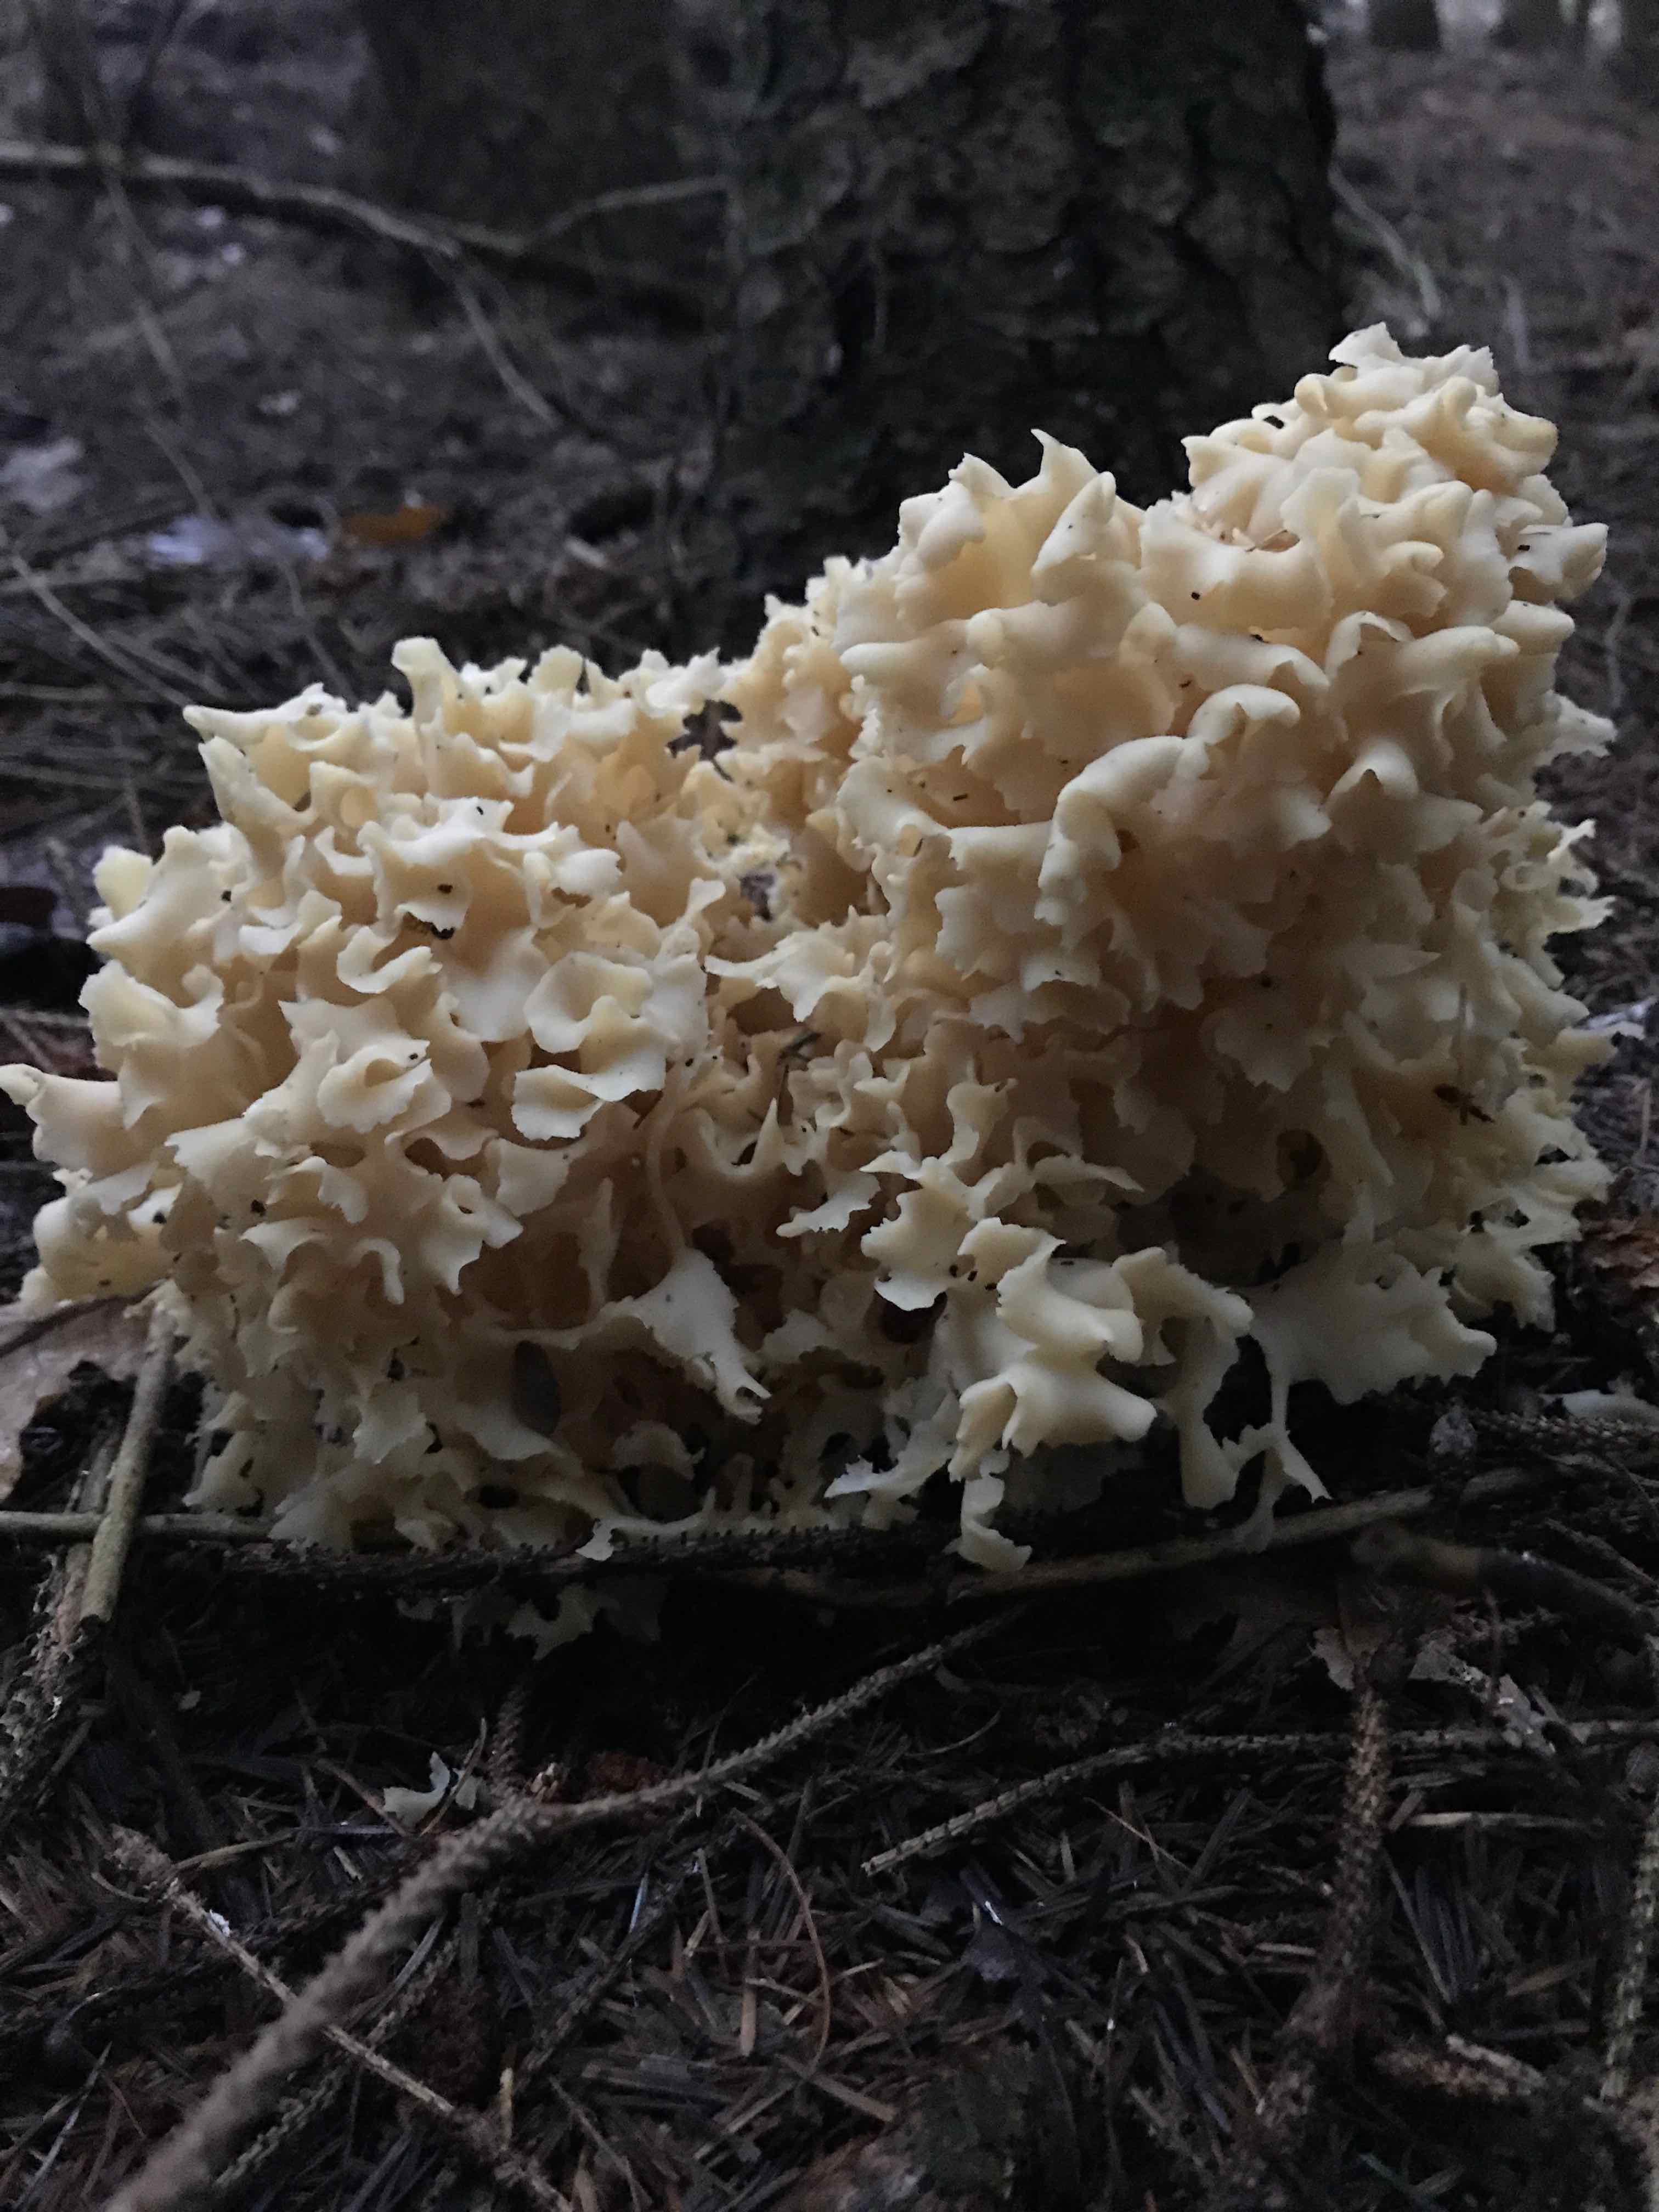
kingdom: Fungi
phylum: Basidiomycota
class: Agaricomycetes
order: Polyporales
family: Sparassidaceae
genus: Sparassis
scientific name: Sparassis crispa
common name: kruset blomkålssvamp
